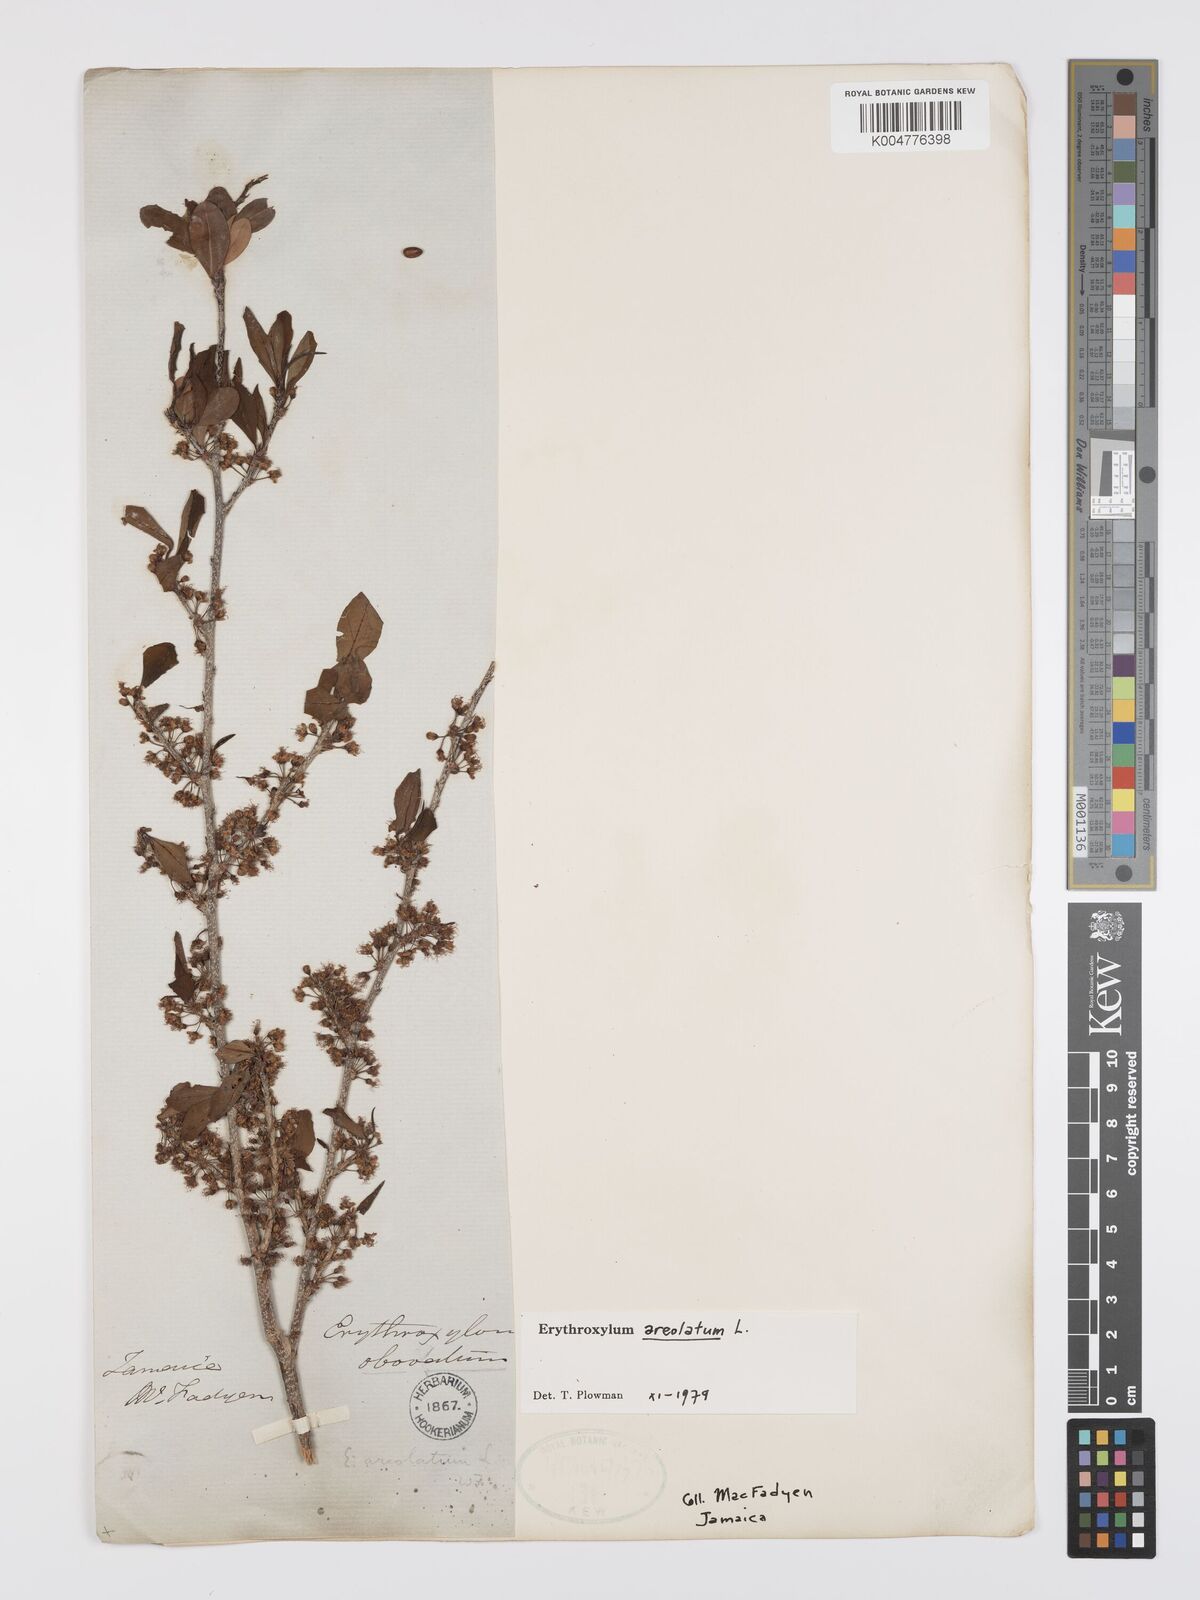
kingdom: Plantae
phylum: Tracheophyta
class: Magnoliopsida
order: Malpighiales
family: Erythroxylaceae
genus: Erythroxylum
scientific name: Erythroxylum areolatum
